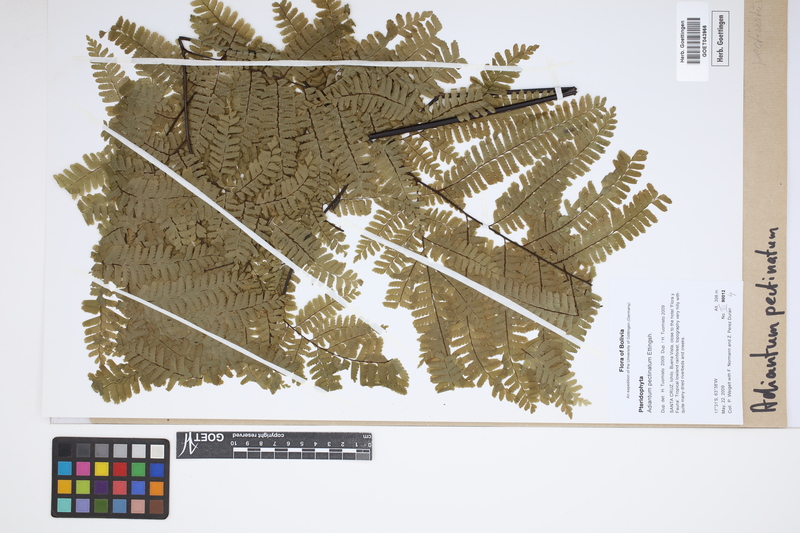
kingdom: Plantae
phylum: Tracheophyta
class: Polypodiopsida
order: Polypodiales
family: Pteridaceae
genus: Adiantum
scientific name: Adiantum pectinatum
